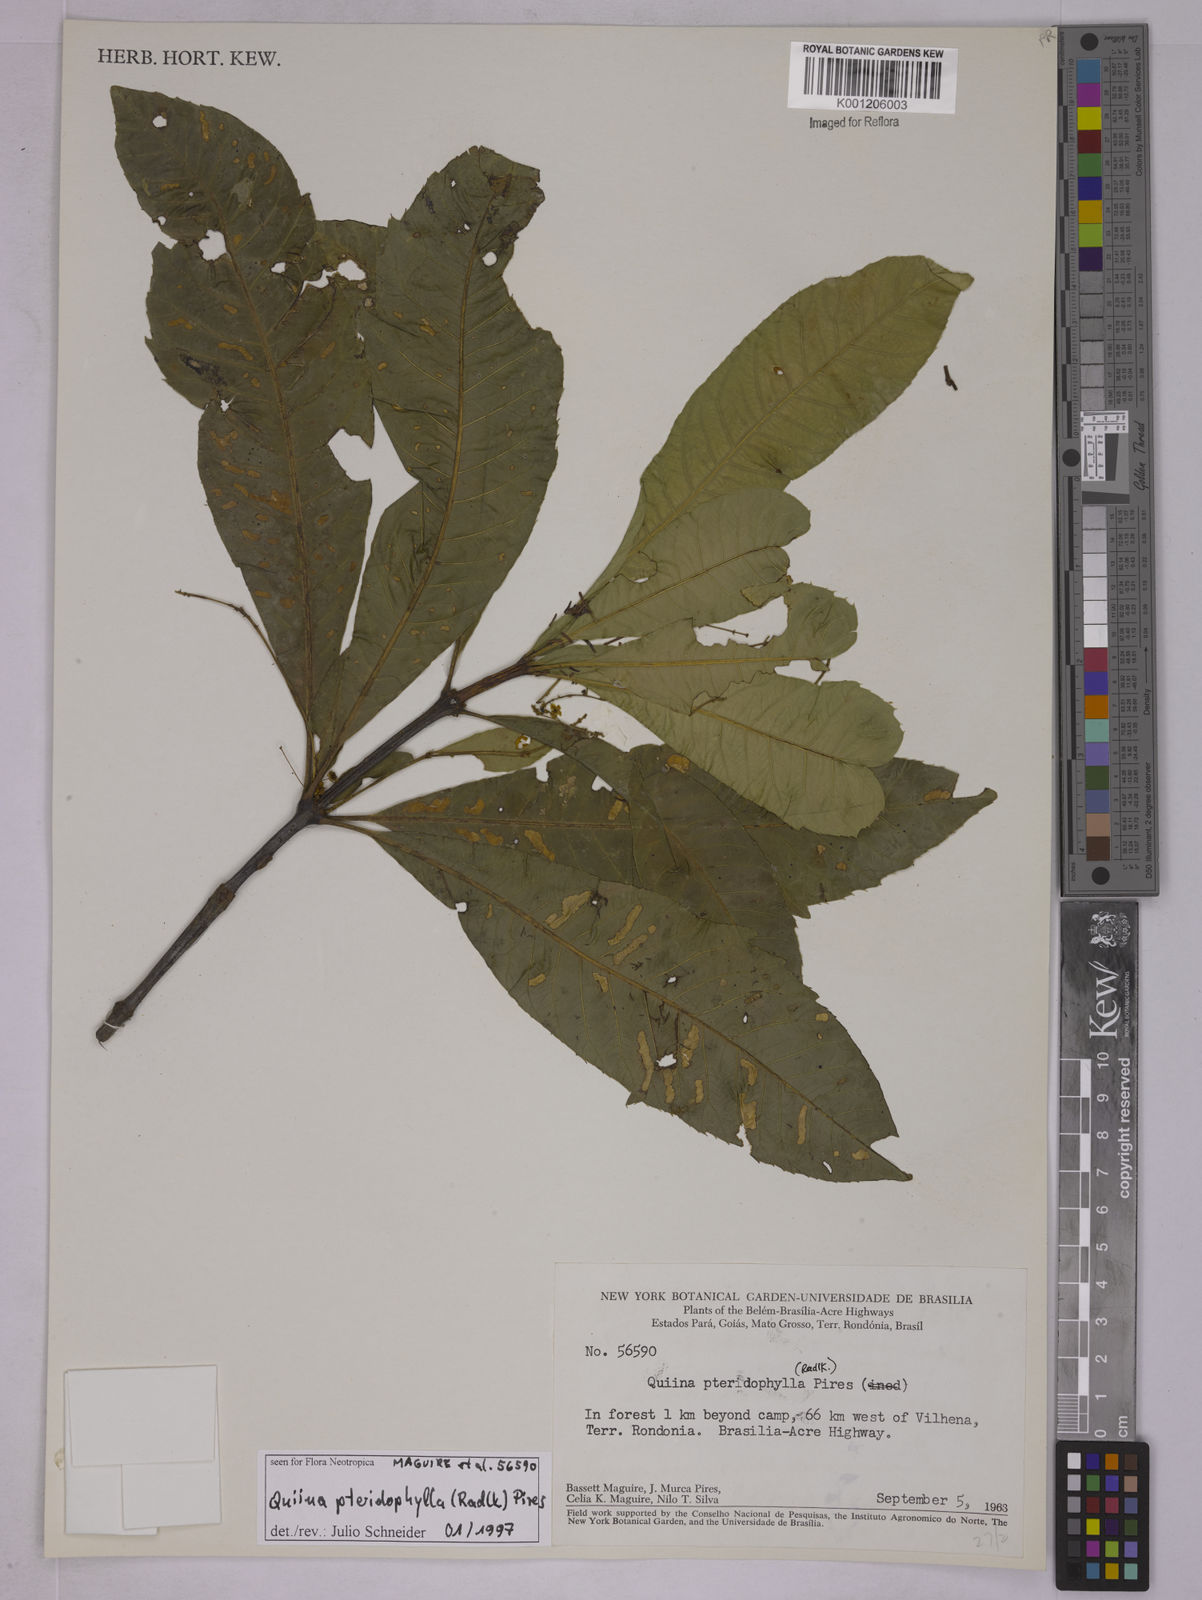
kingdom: Plantae
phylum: Tracheophyta
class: Magnoliopsida
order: Malpighiales
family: Quiinaceae
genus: Quiina
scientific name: Quiina pteridophylla
